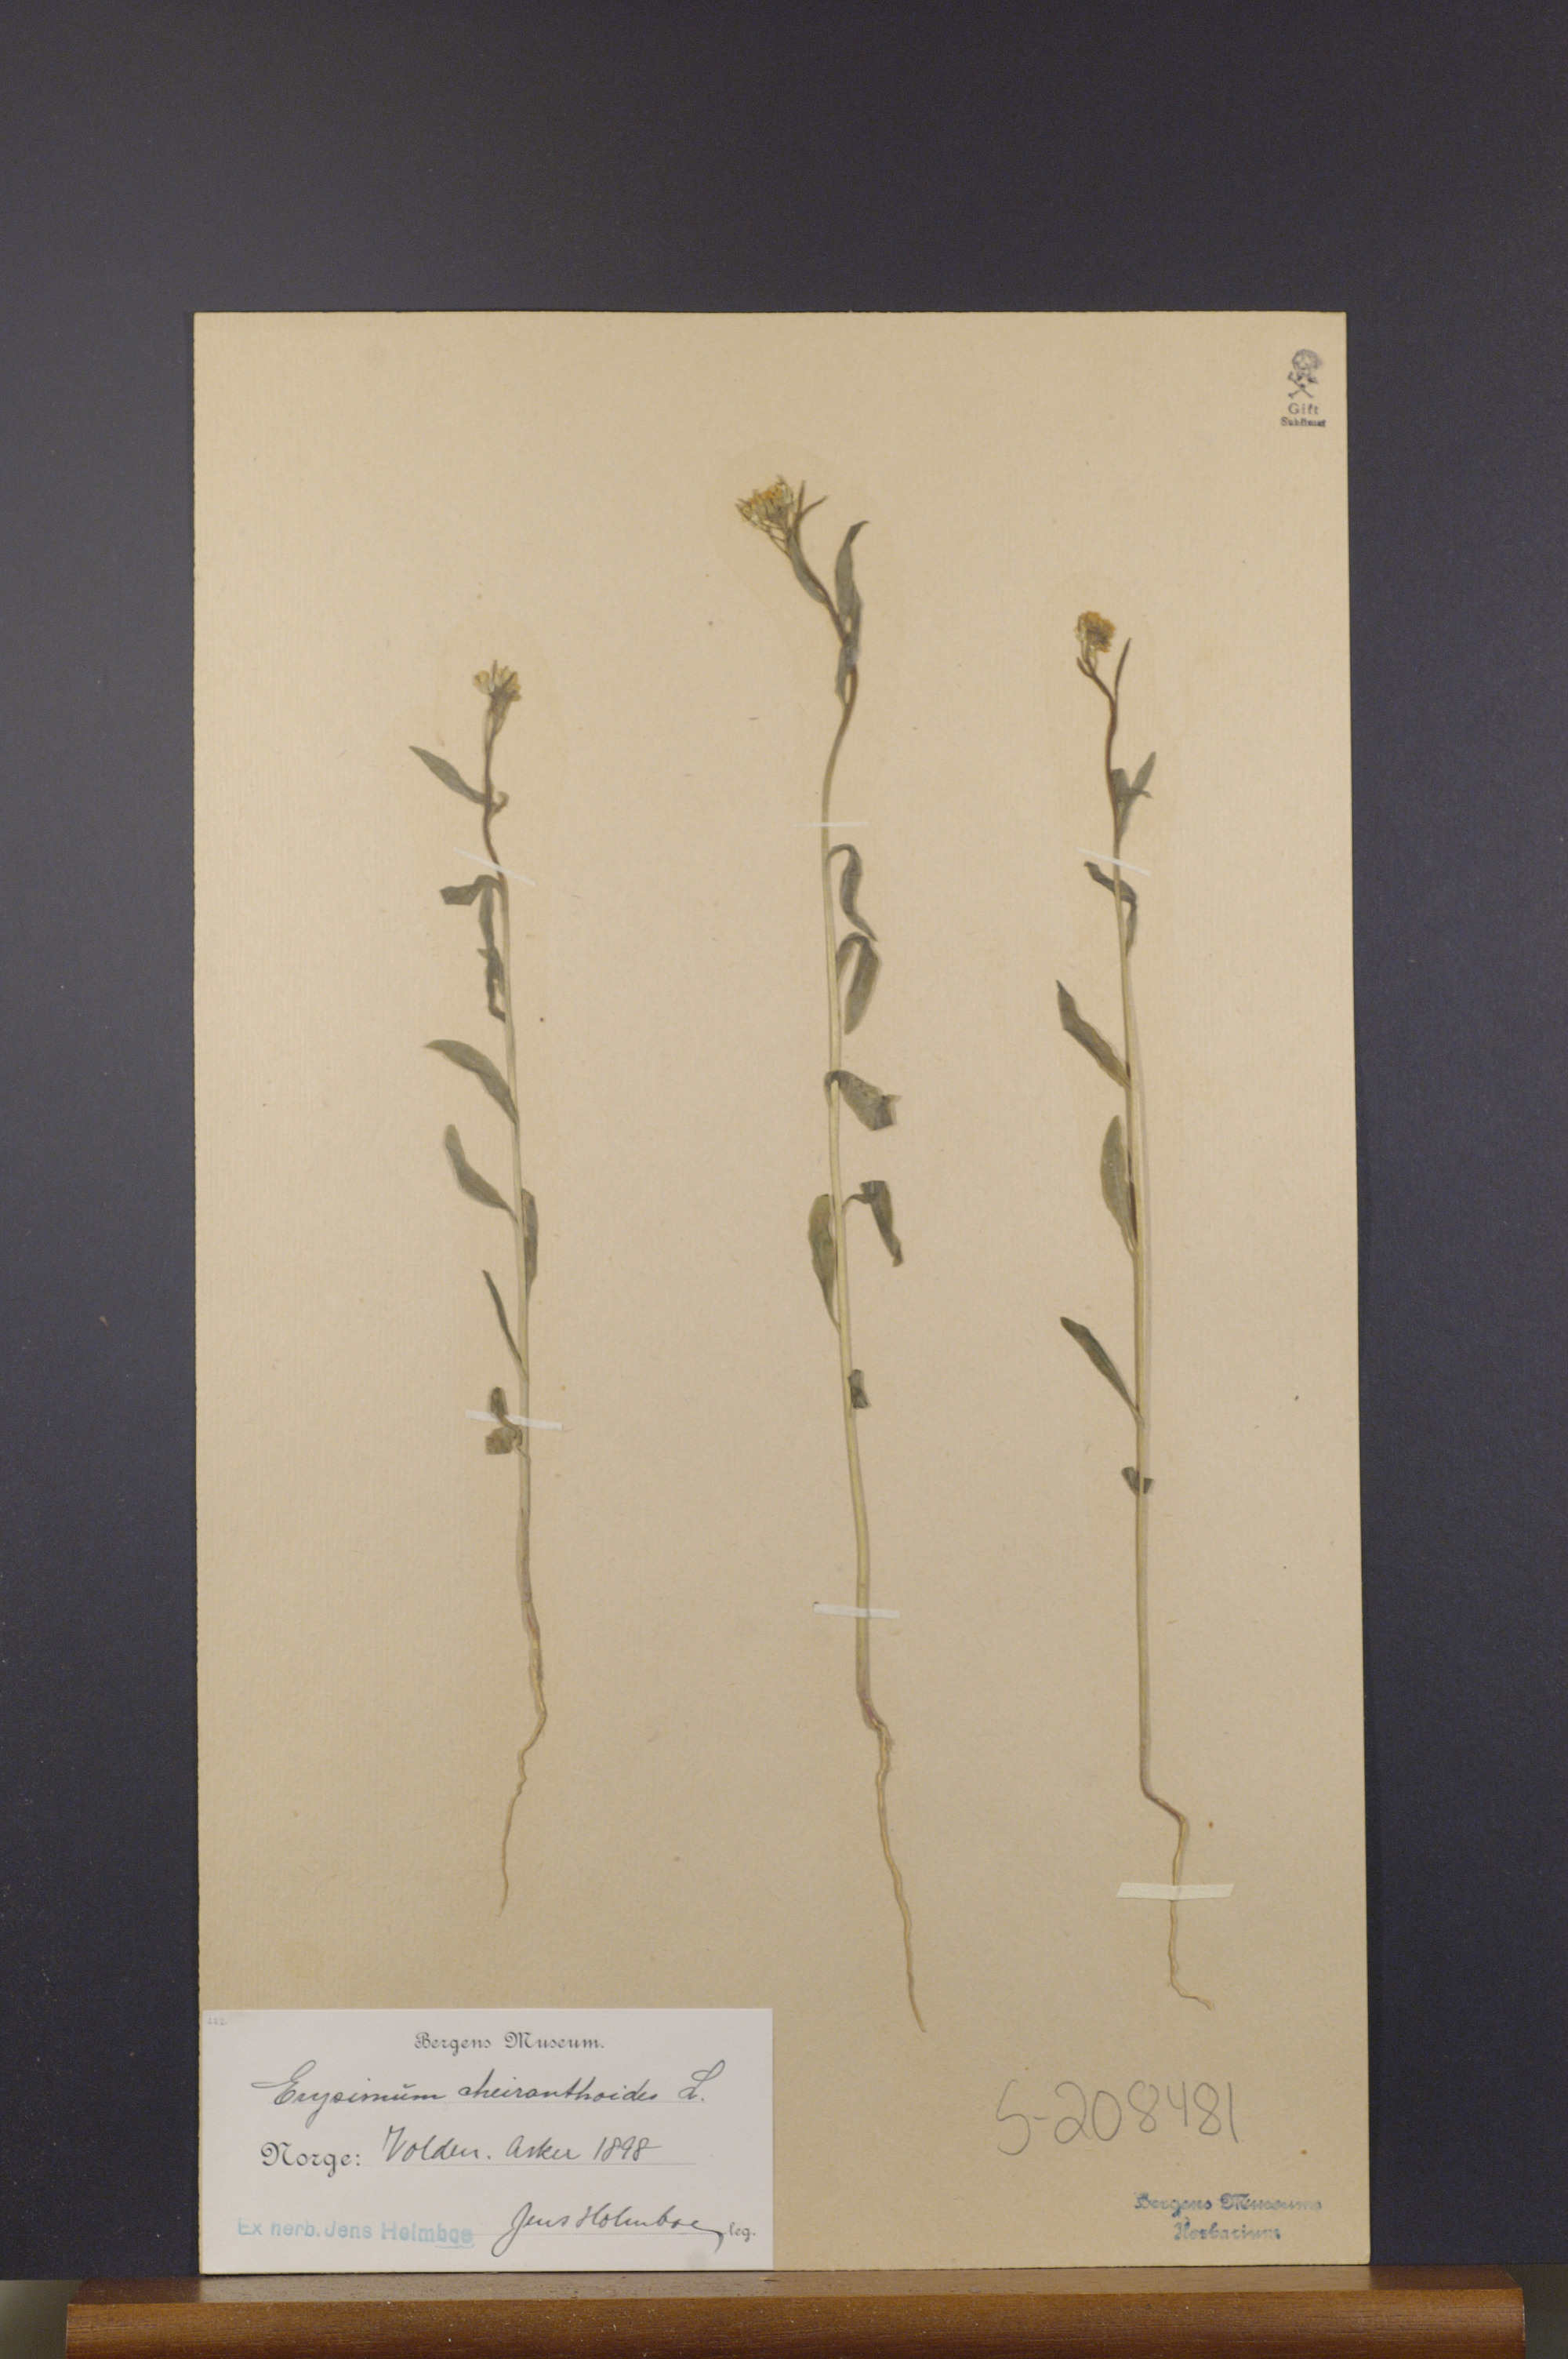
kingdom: Plantae
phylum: Tracheophyta
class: Magnoliopsida
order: Brassicales
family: Brassicaceae
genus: Erysimum
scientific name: Erysimum cheiranthoides
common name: Treacle mustard
